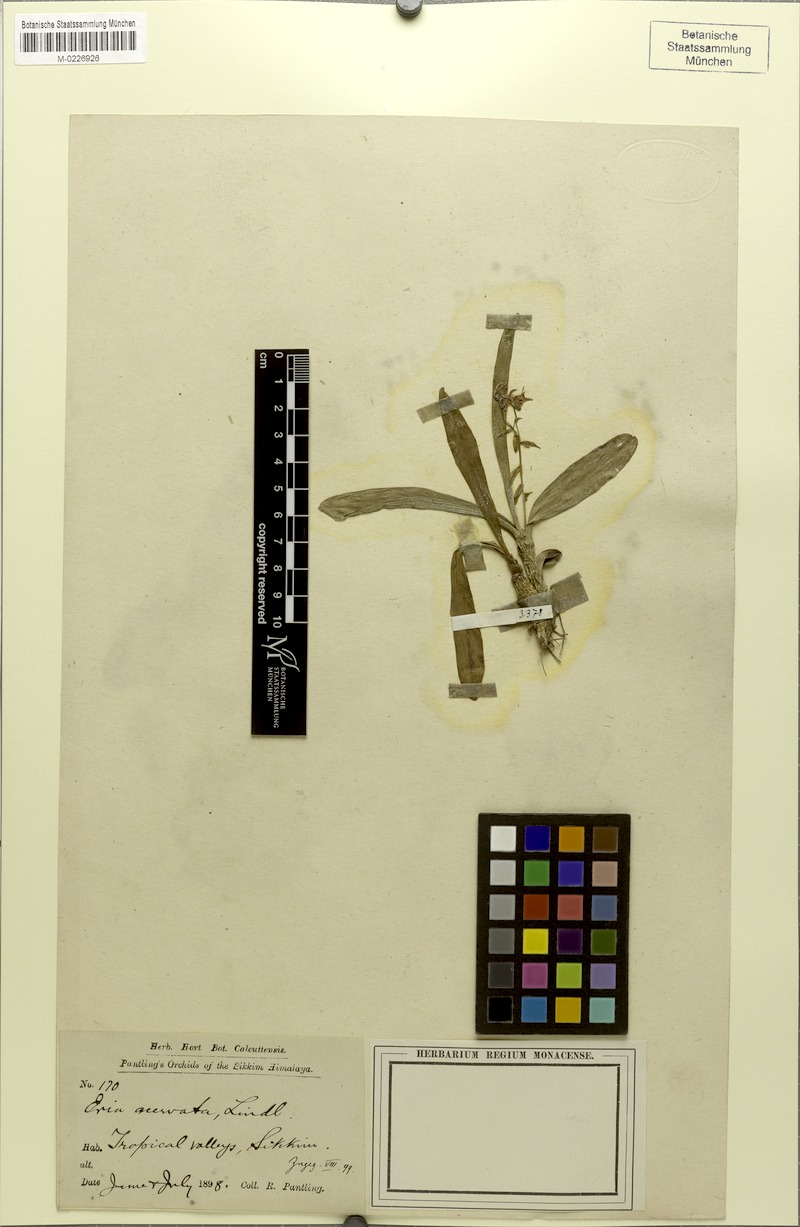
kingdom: Plantae
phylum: Tracheophyta
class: Liliopsida
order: Asparagales
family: Orchidaceae
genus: Pinalia
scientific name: Pinalia acervata
